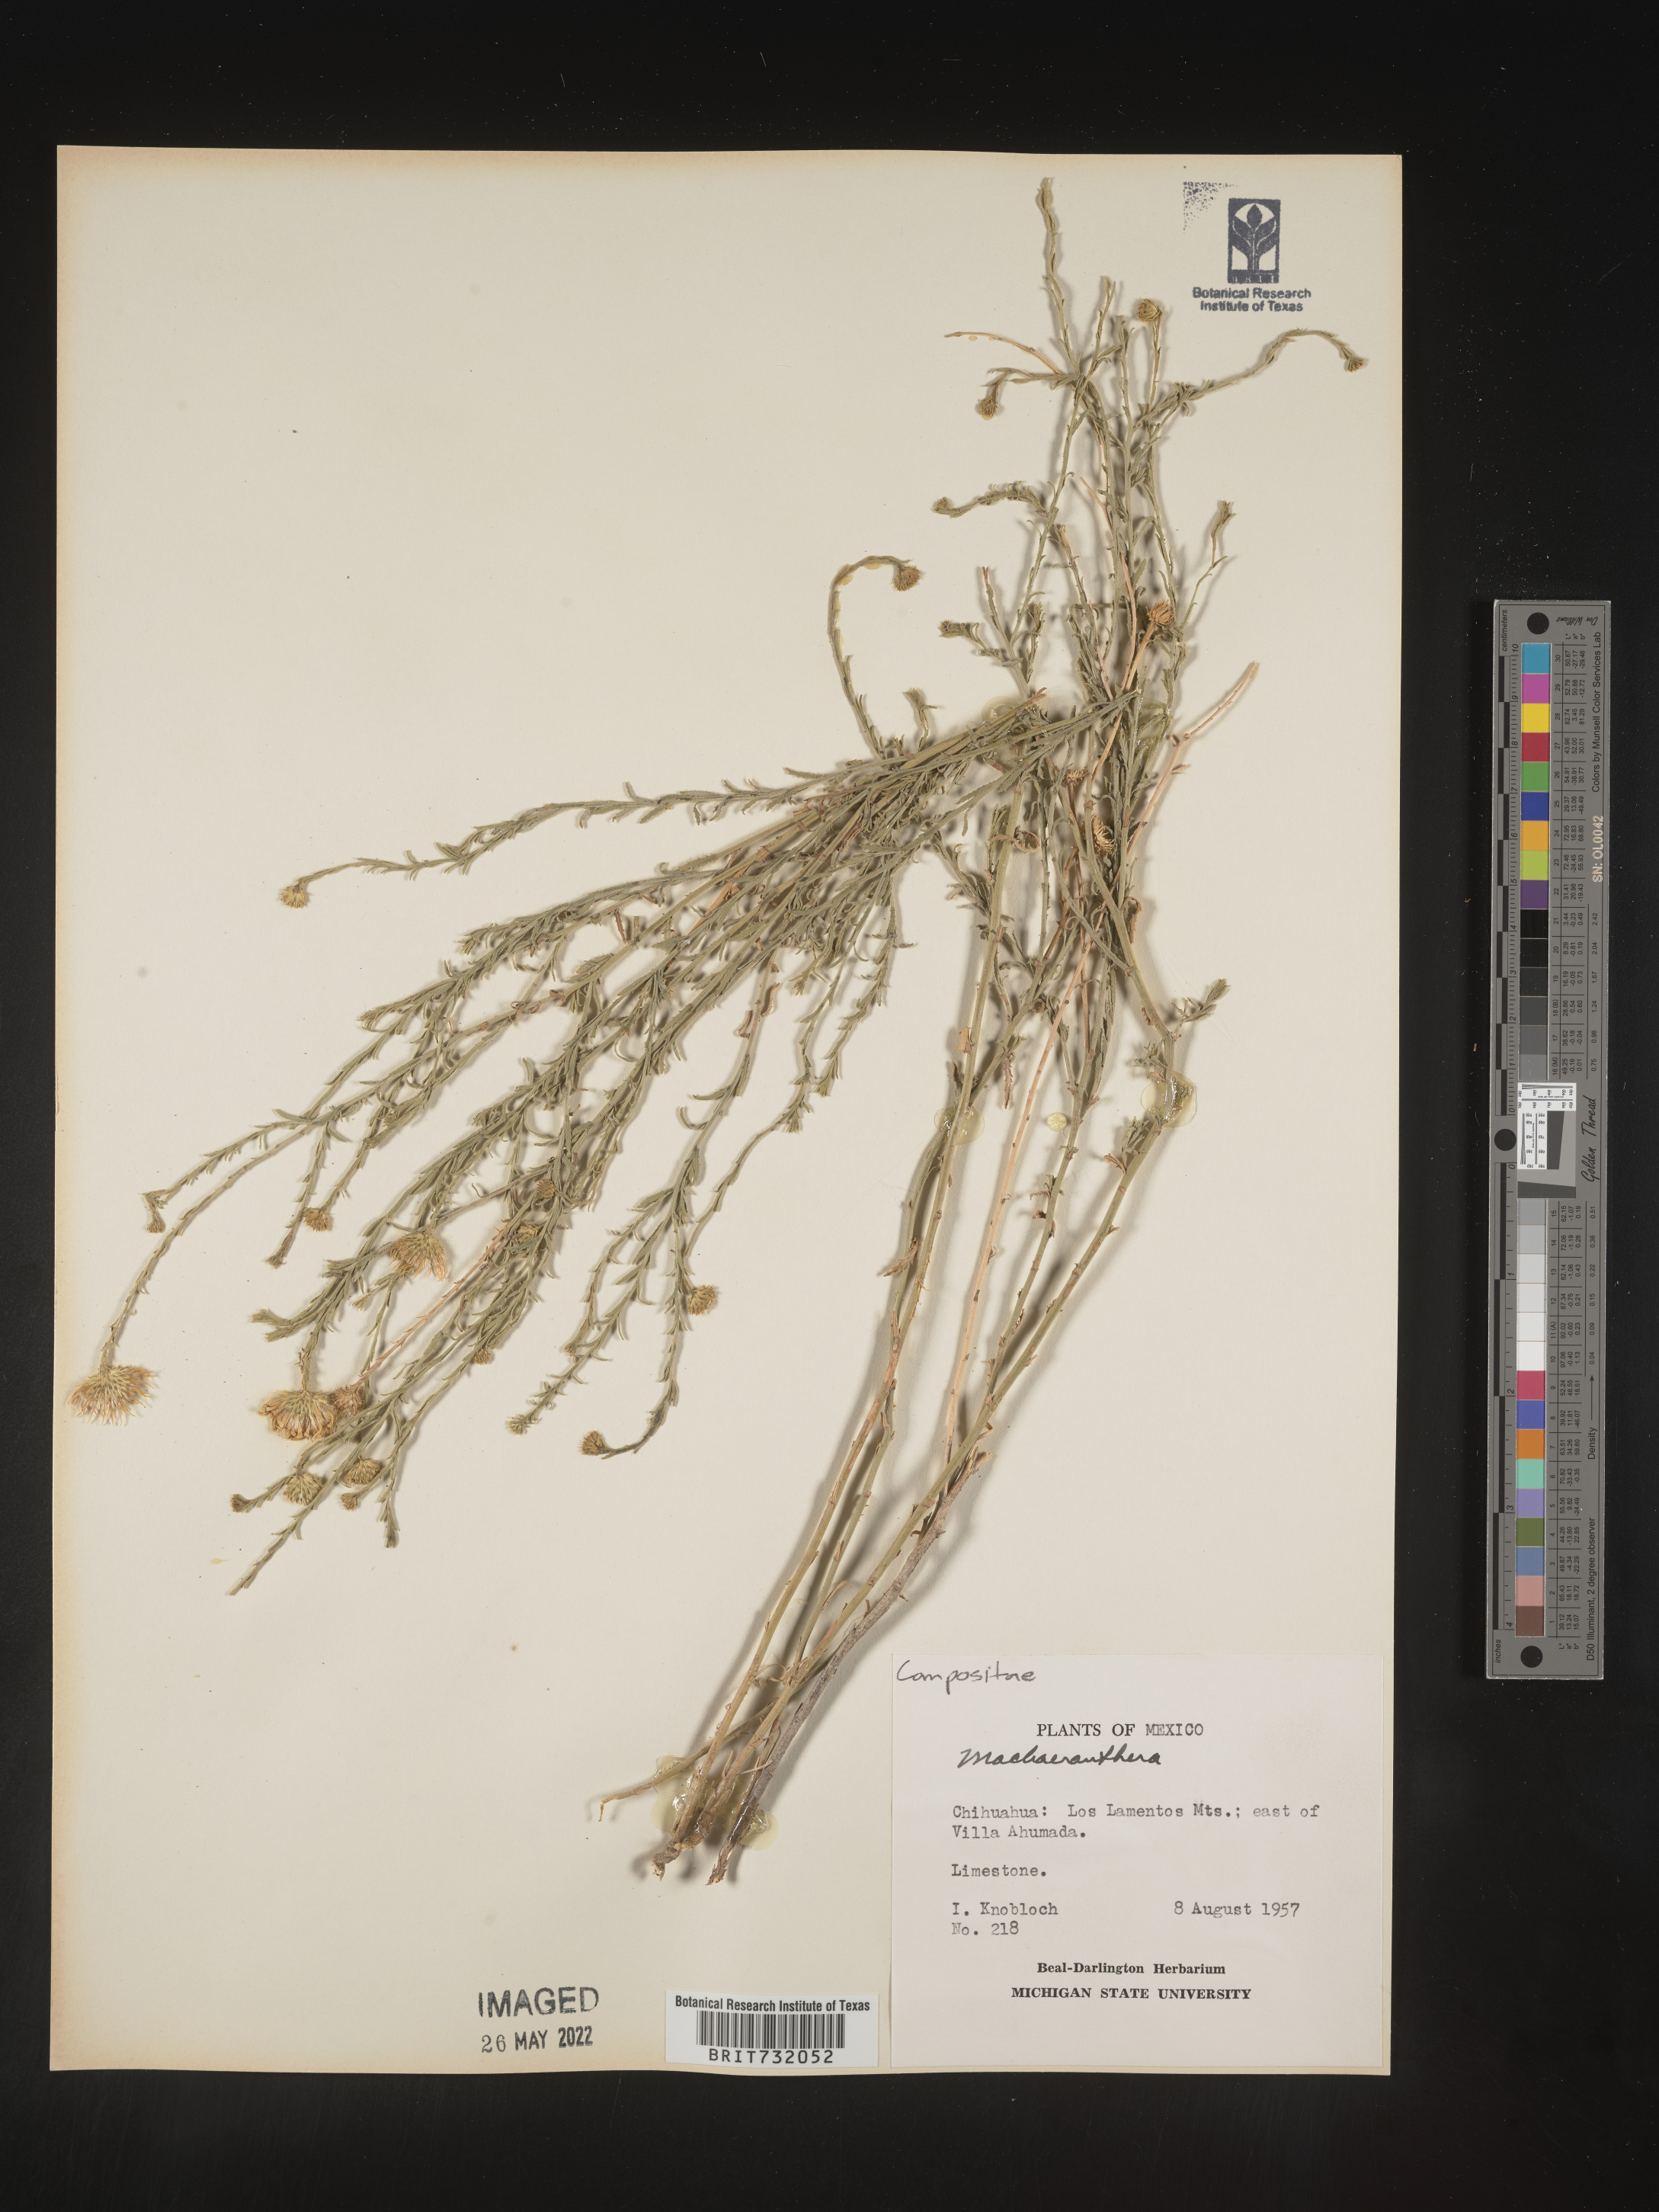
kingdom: Plantae
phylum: Tracheophyta
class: Magnoliopsida
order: Asterales
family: Asteraceae
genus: Machaeranthera
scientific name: Machaeranthera
